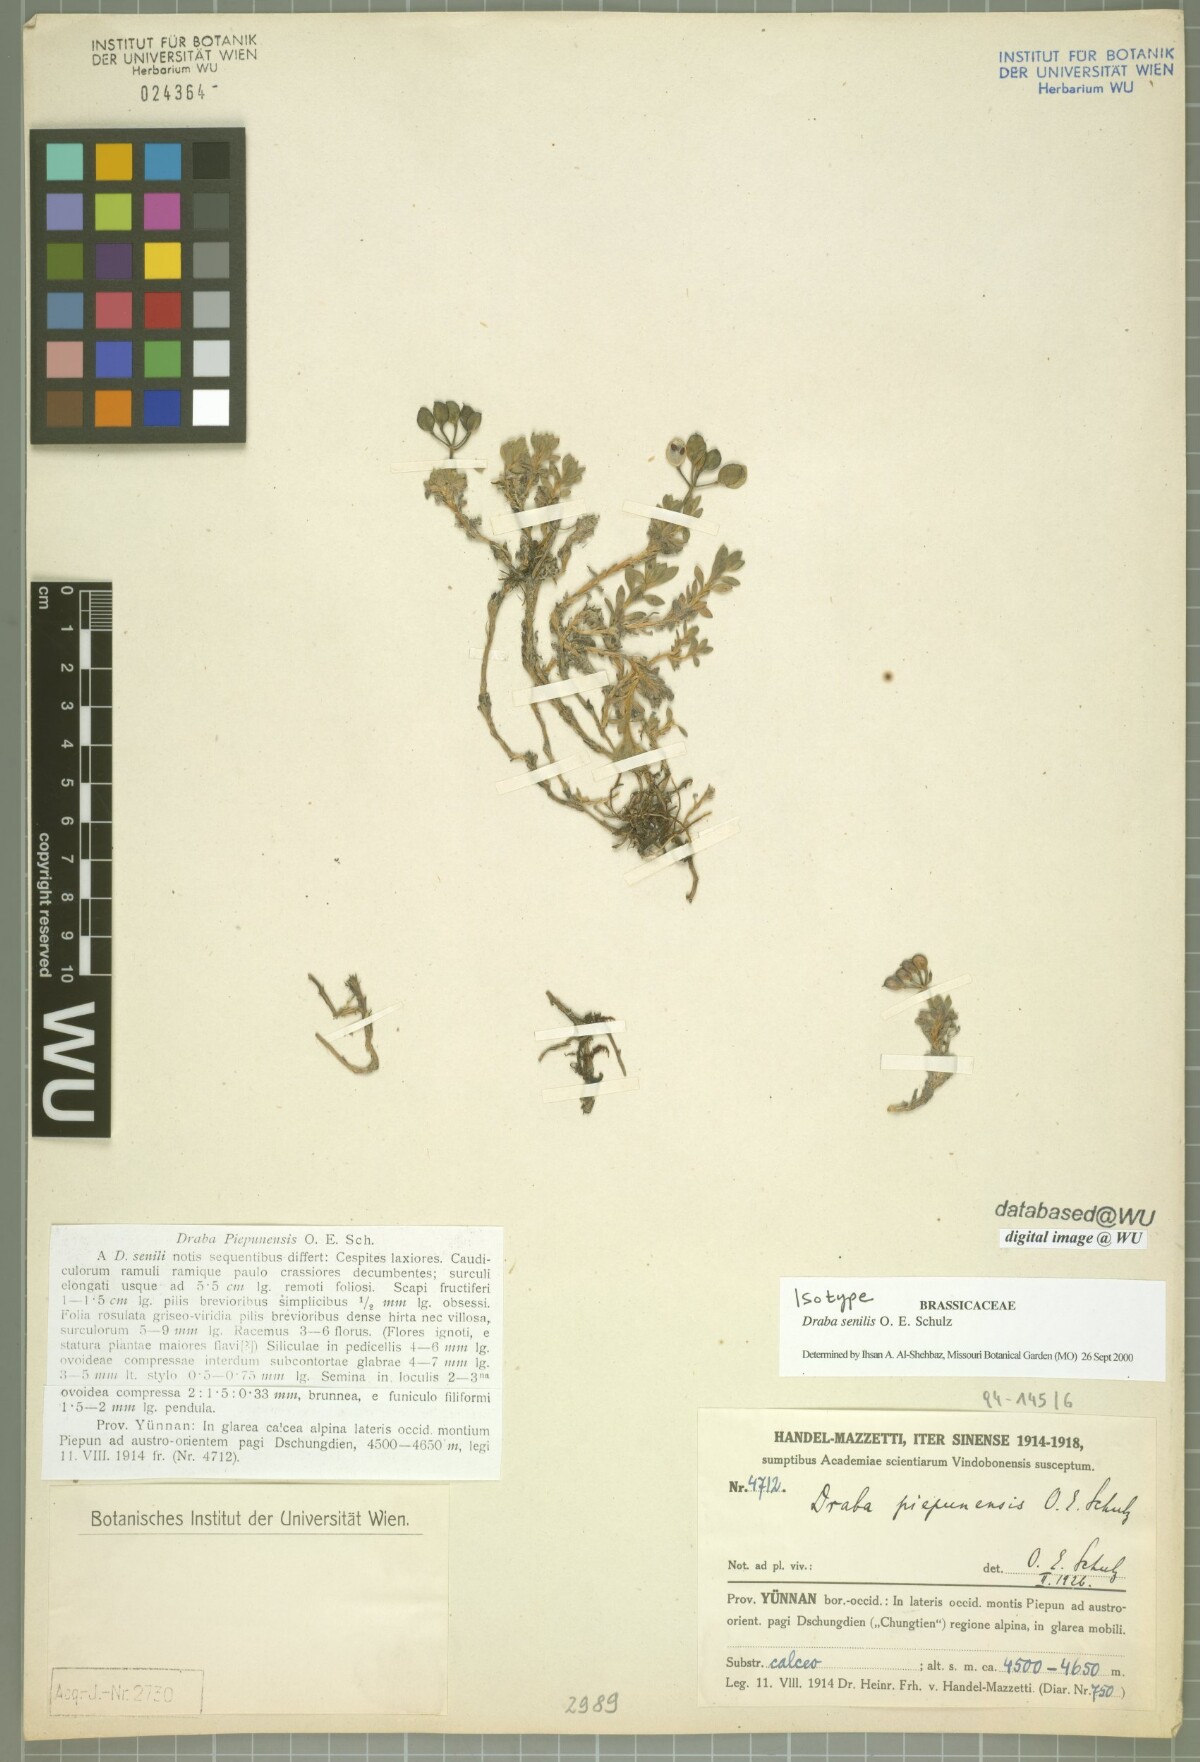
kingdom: Plantae
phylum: Tracheophyta
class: Magnoliopsida
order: Brassicales
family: Brassicaceae
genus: Draba
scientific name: Draba senilis
